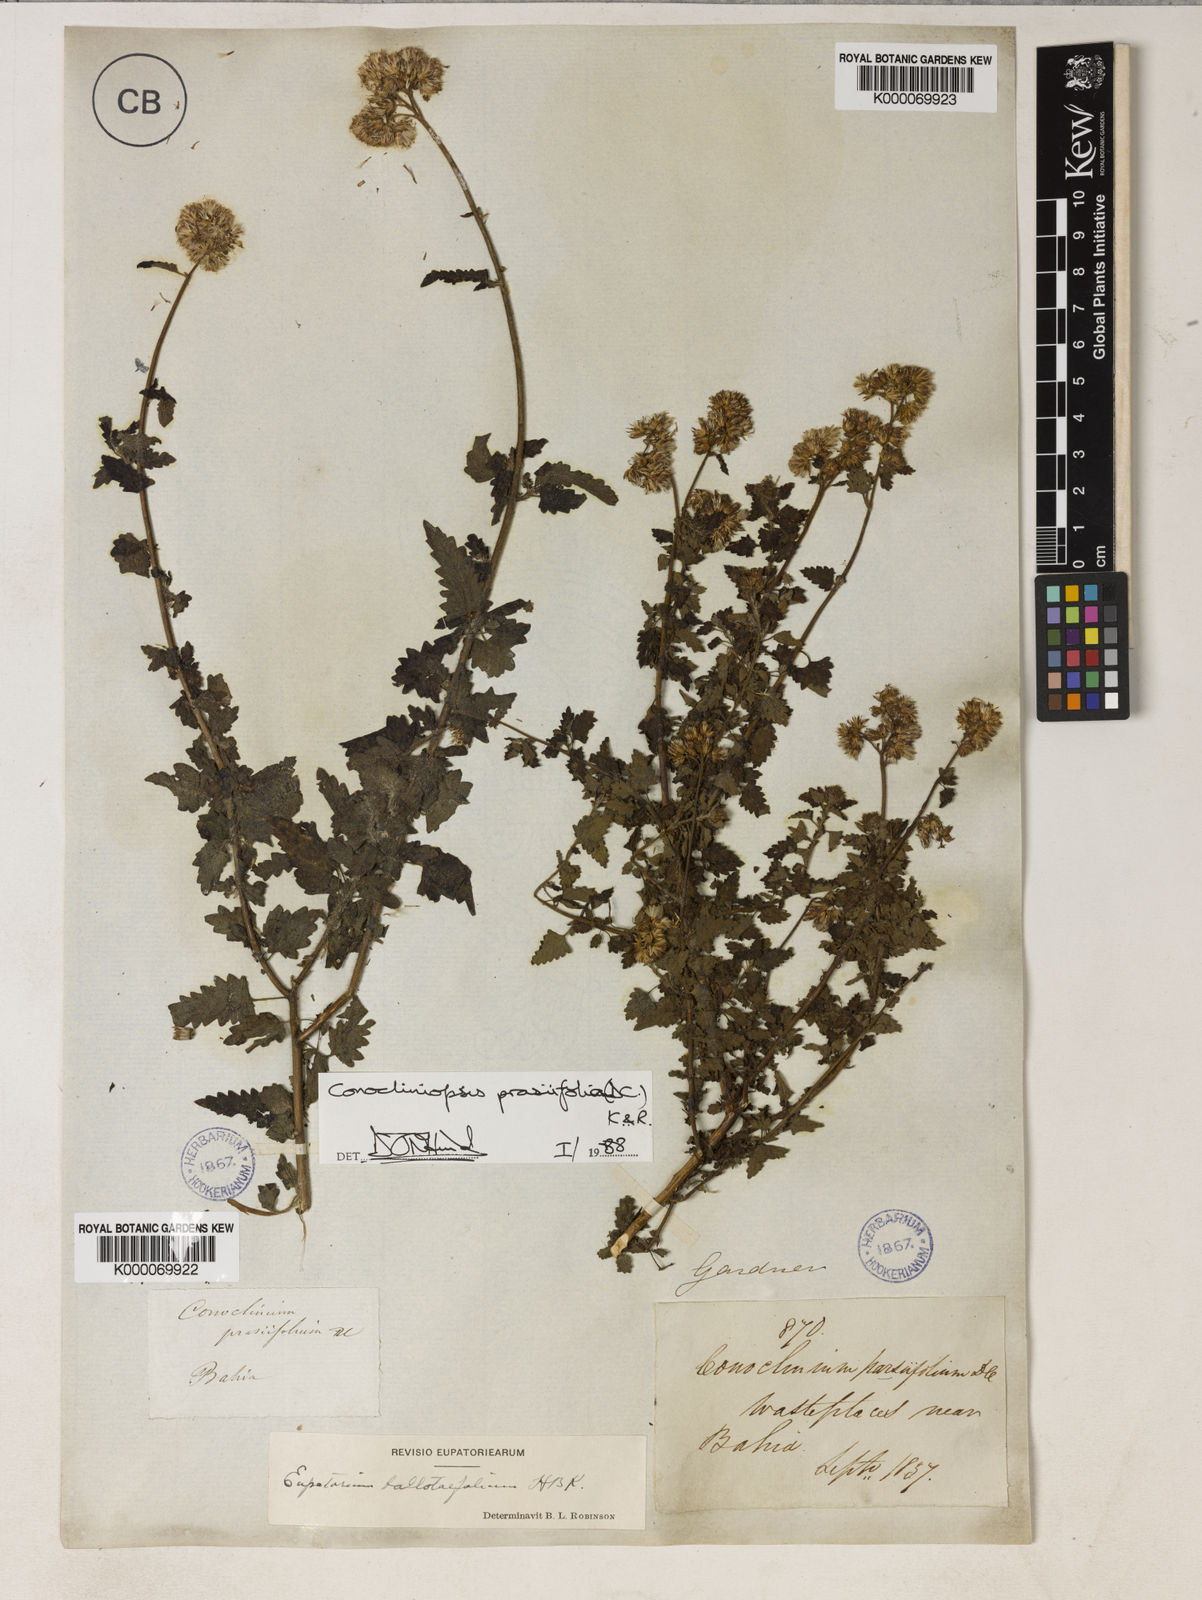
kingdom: Plantae
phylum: Tracheophyta
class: Magnoliopsida
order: Asterales
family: Asteraceae
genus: Conocliniopsis
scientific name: Conocliniopsis grossedentata
